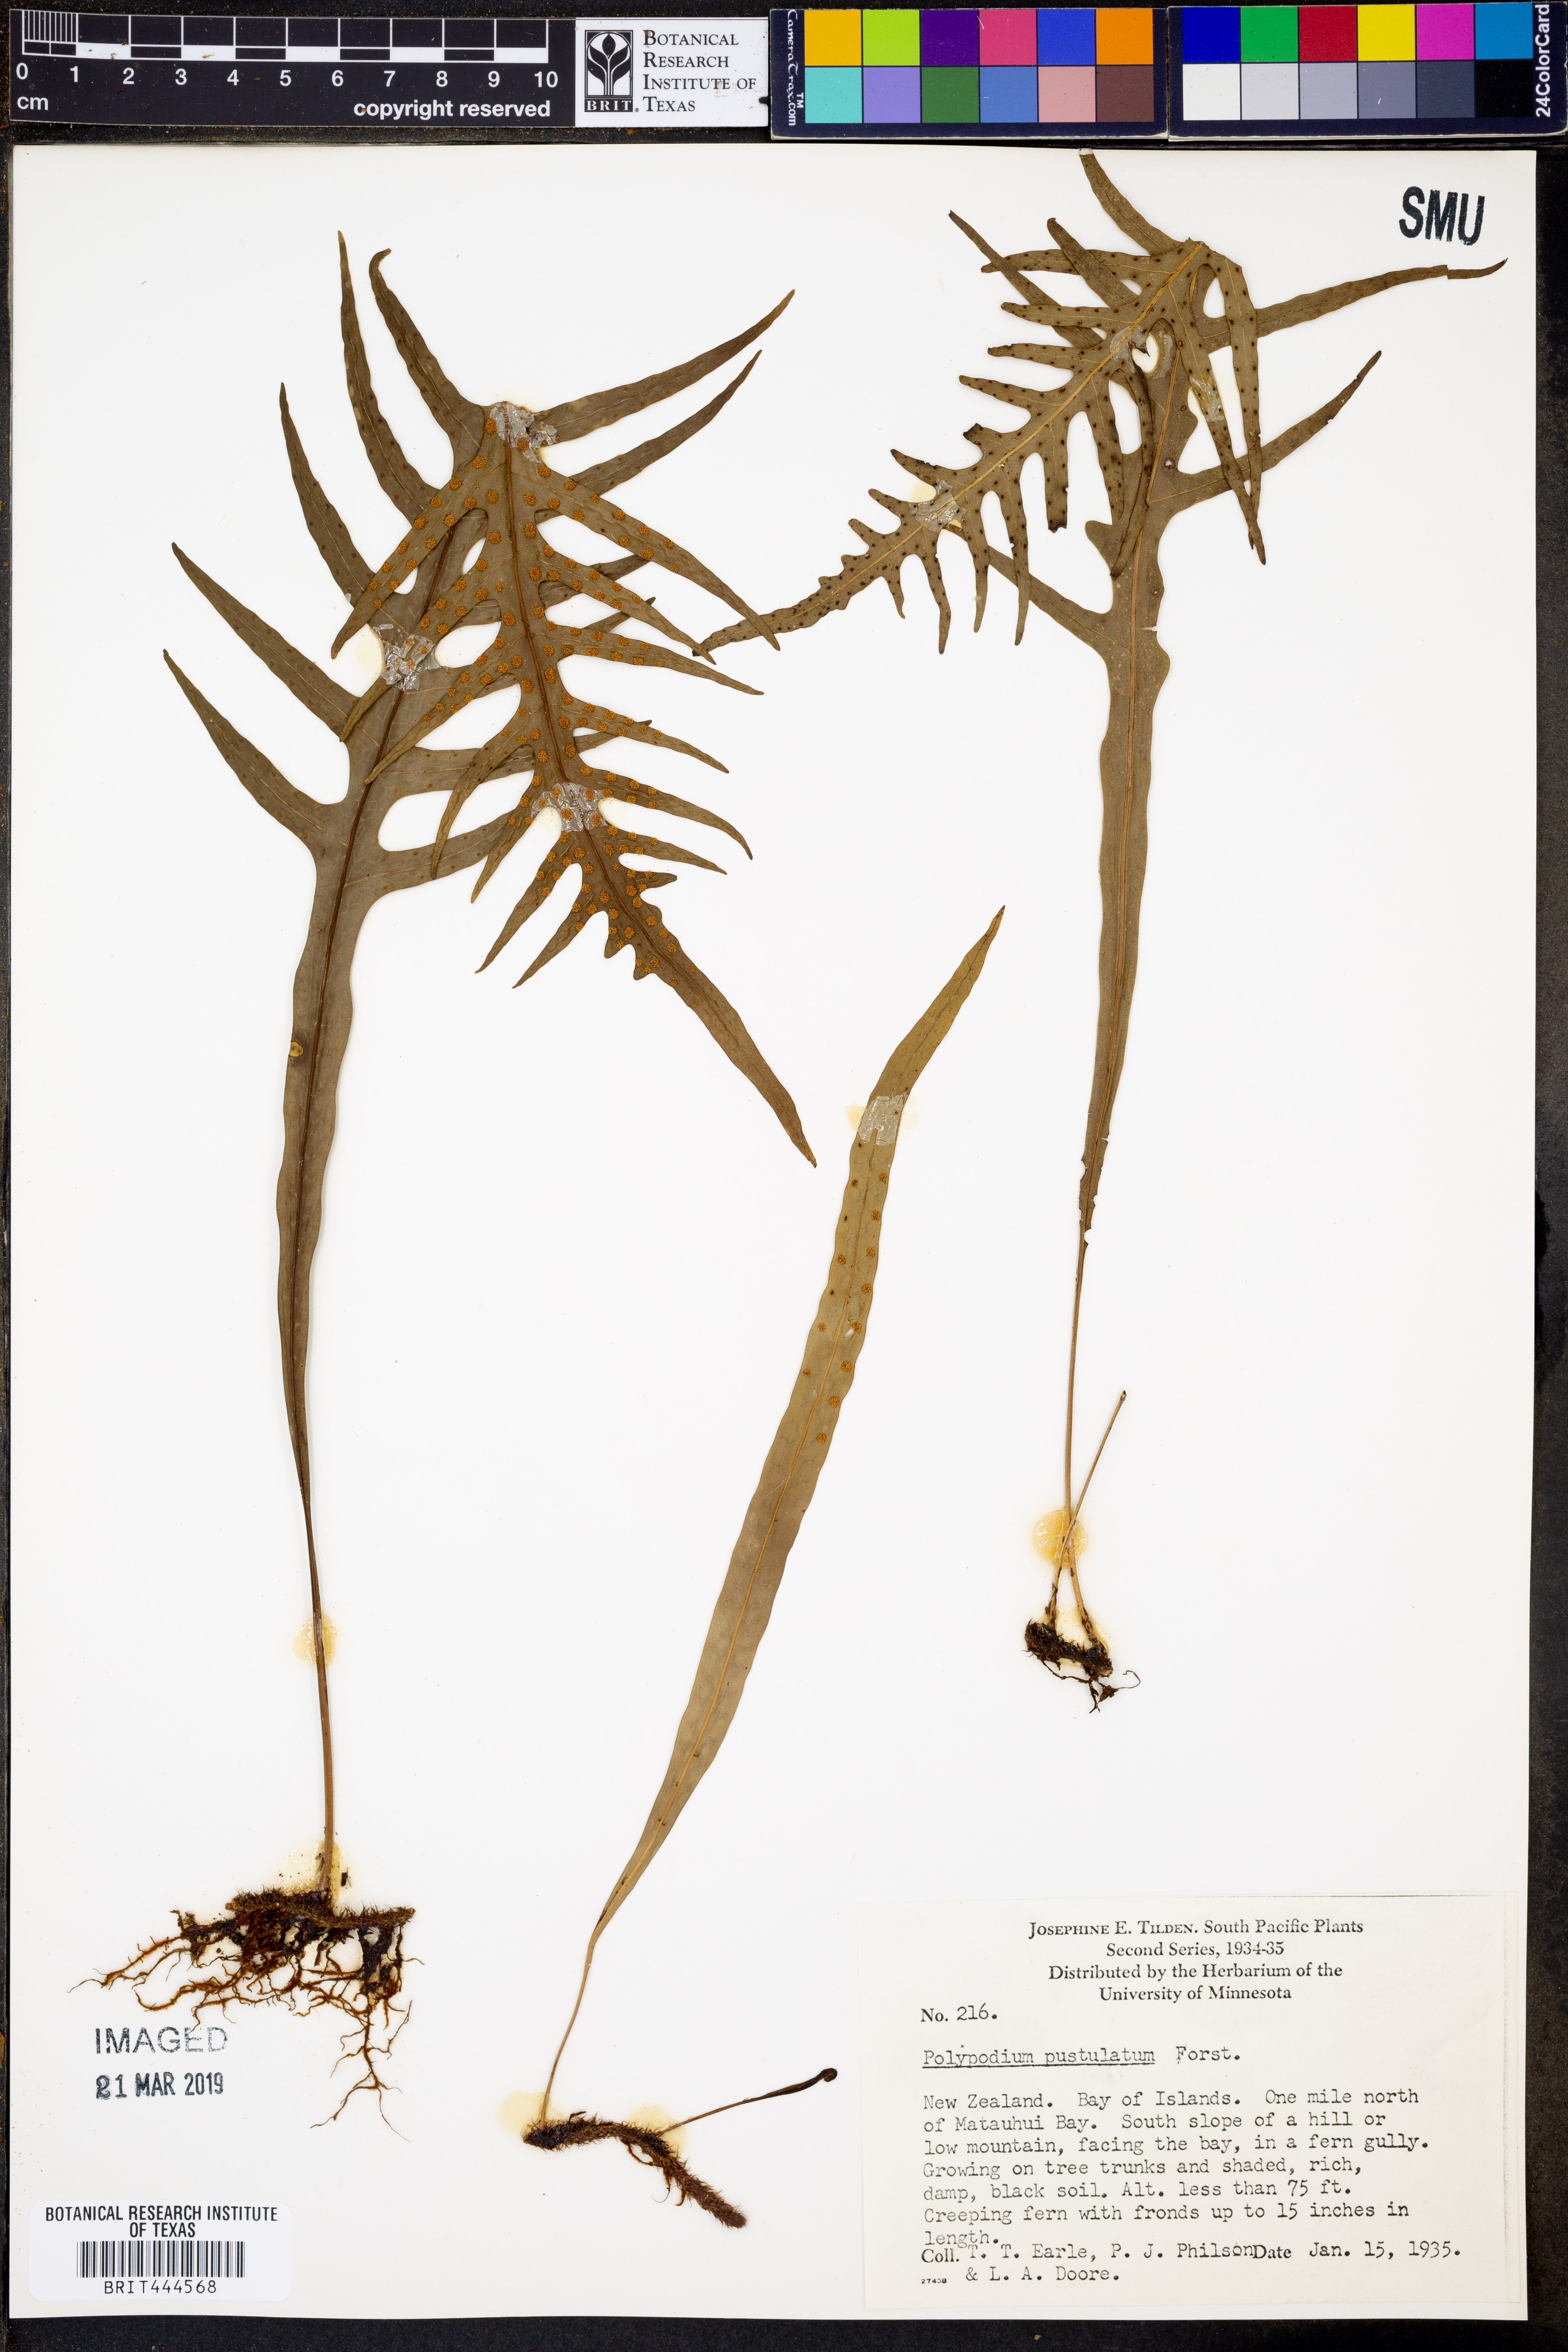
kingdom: Plantae
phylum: Tracheophyta
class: Polypodiopsida
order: Polypodiales
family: Polypodiaceae
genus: Lecanopteris
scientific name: Lecanopteris pustulata
